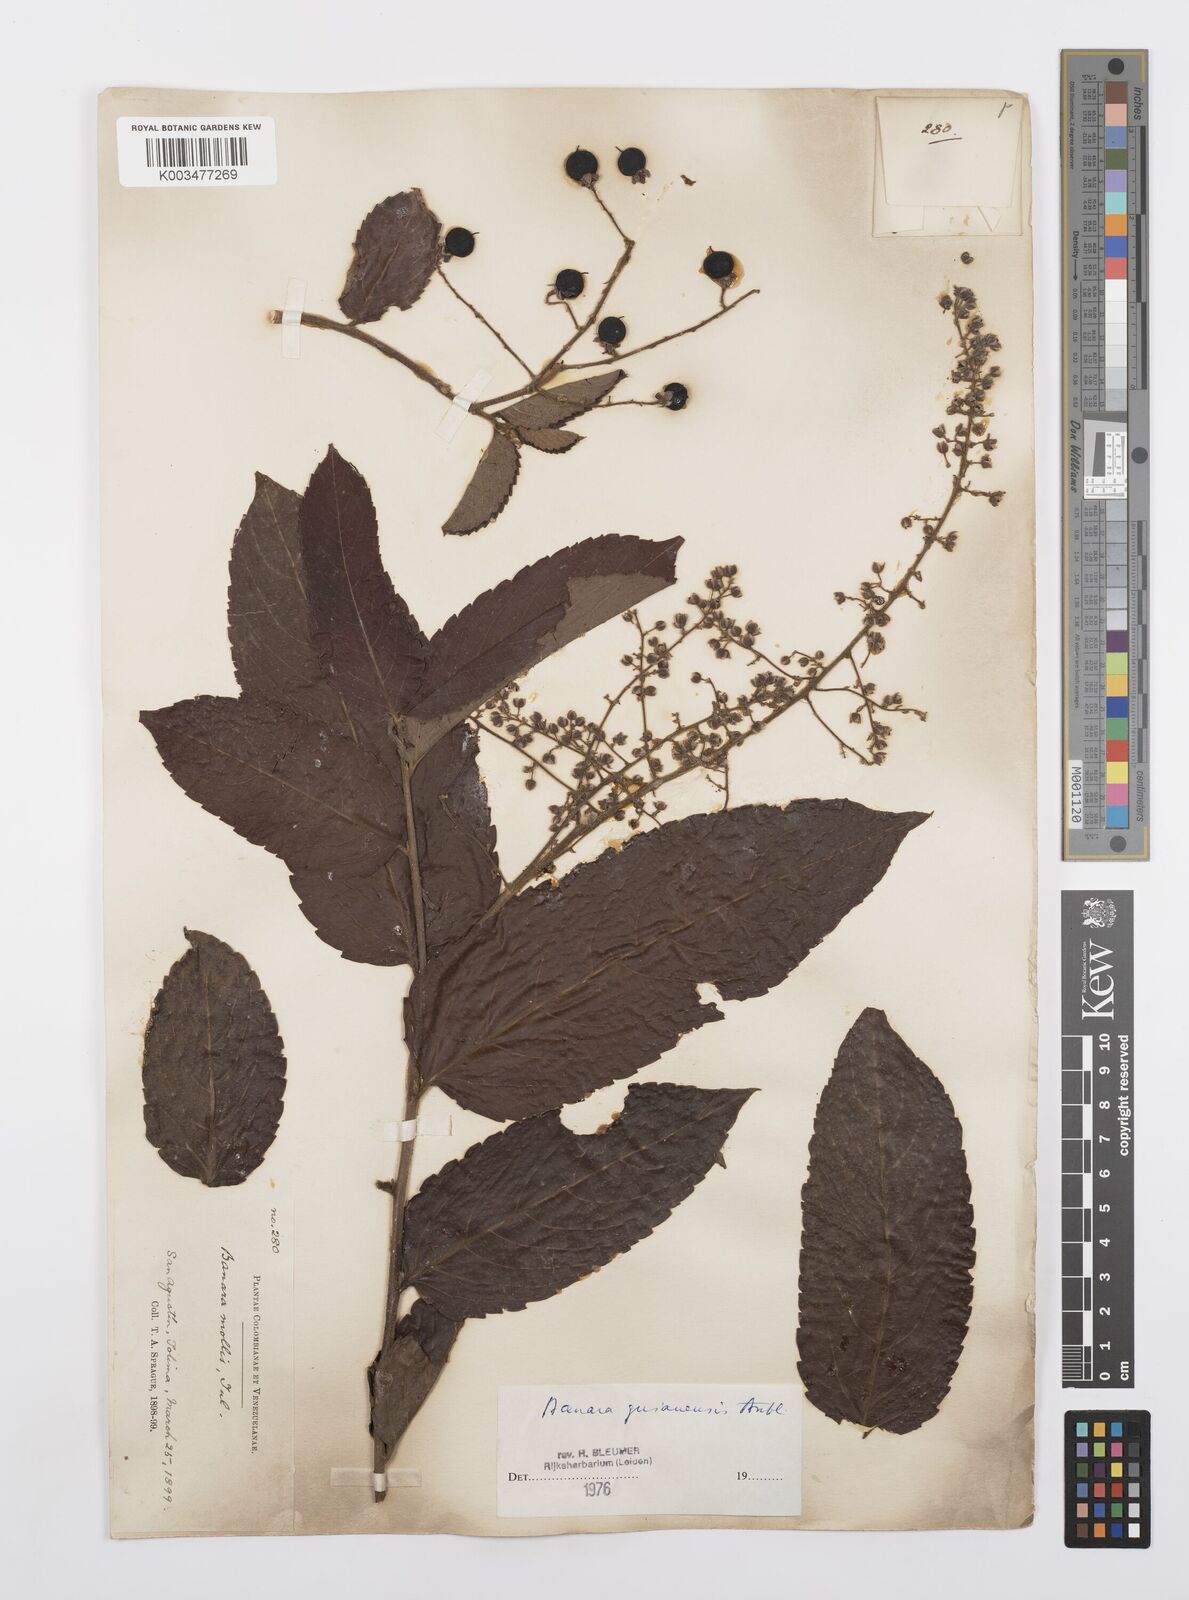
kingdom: Plantae
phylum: Tracheophyta
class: Magnoliopsida
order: Malpighiales
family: Salicaceae
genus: Banara
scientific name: Banara guianensis
